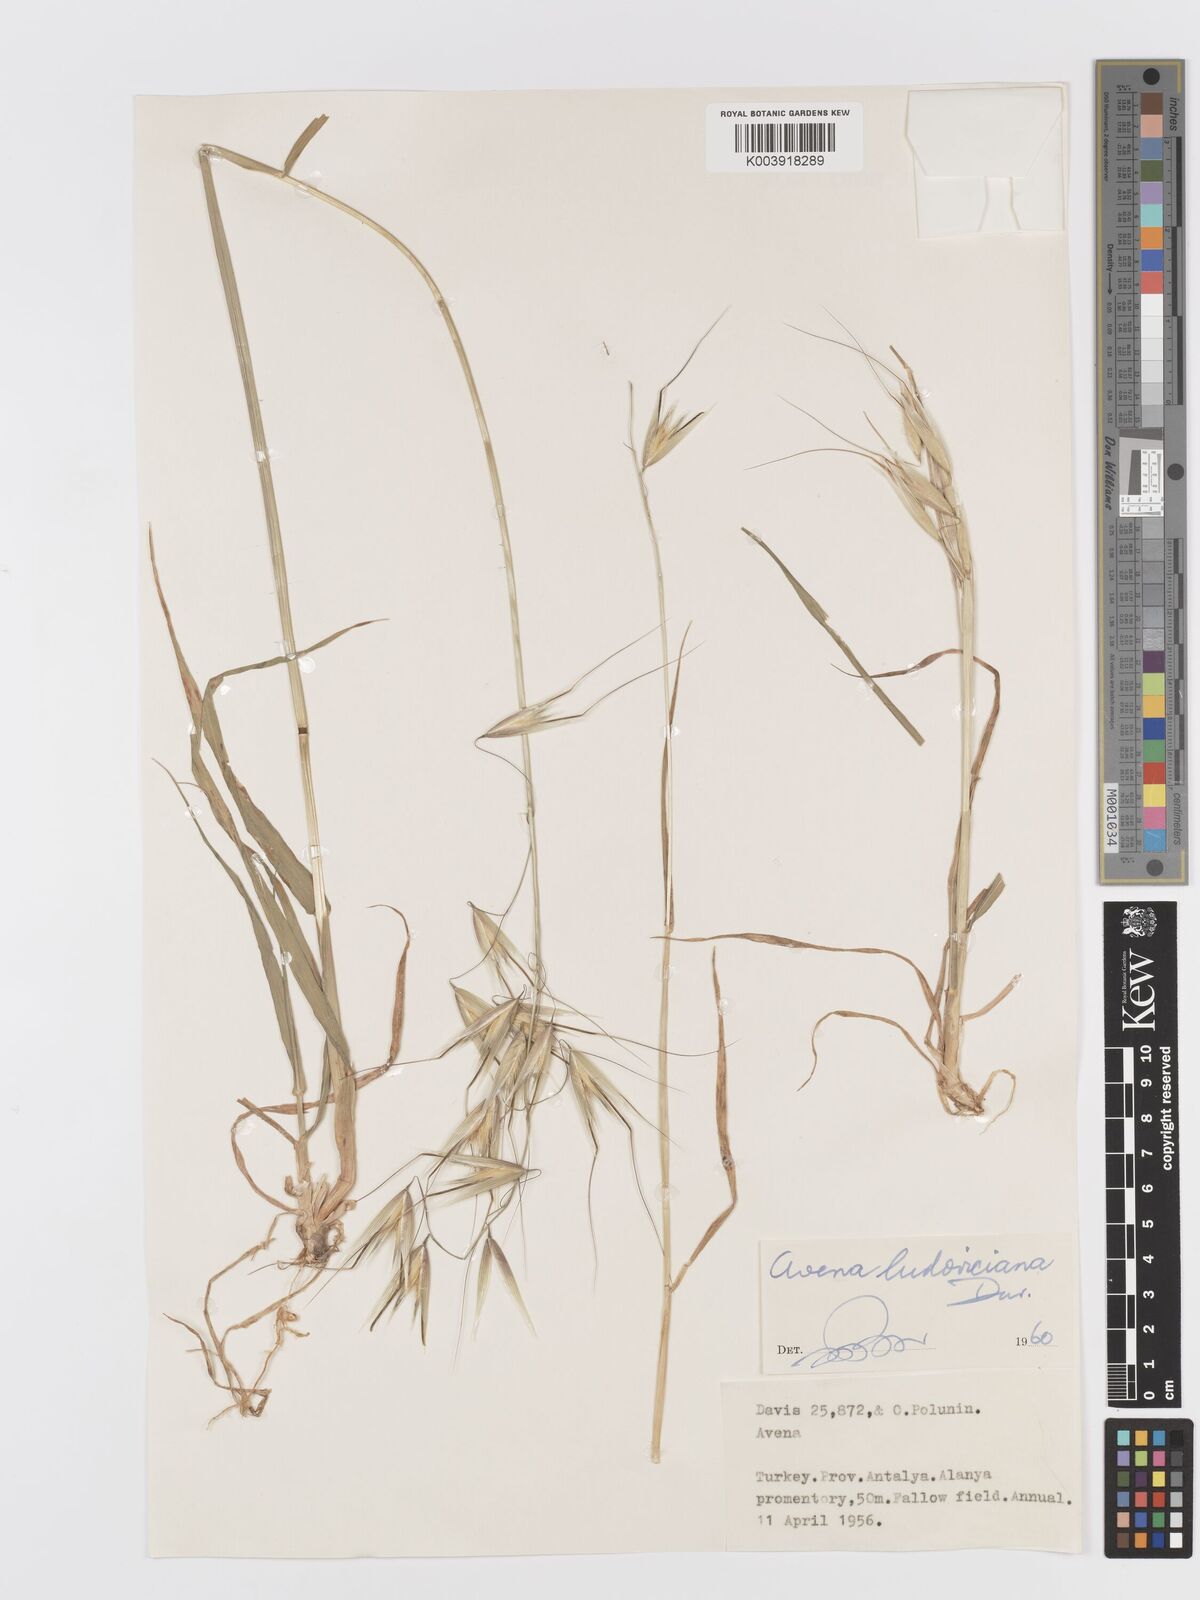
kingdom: Plantae
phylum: Tracheophyta
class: Liliopsida
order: Poales
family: Poaceae
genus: Avena
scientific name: Avena sterilis
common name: Animated oat
